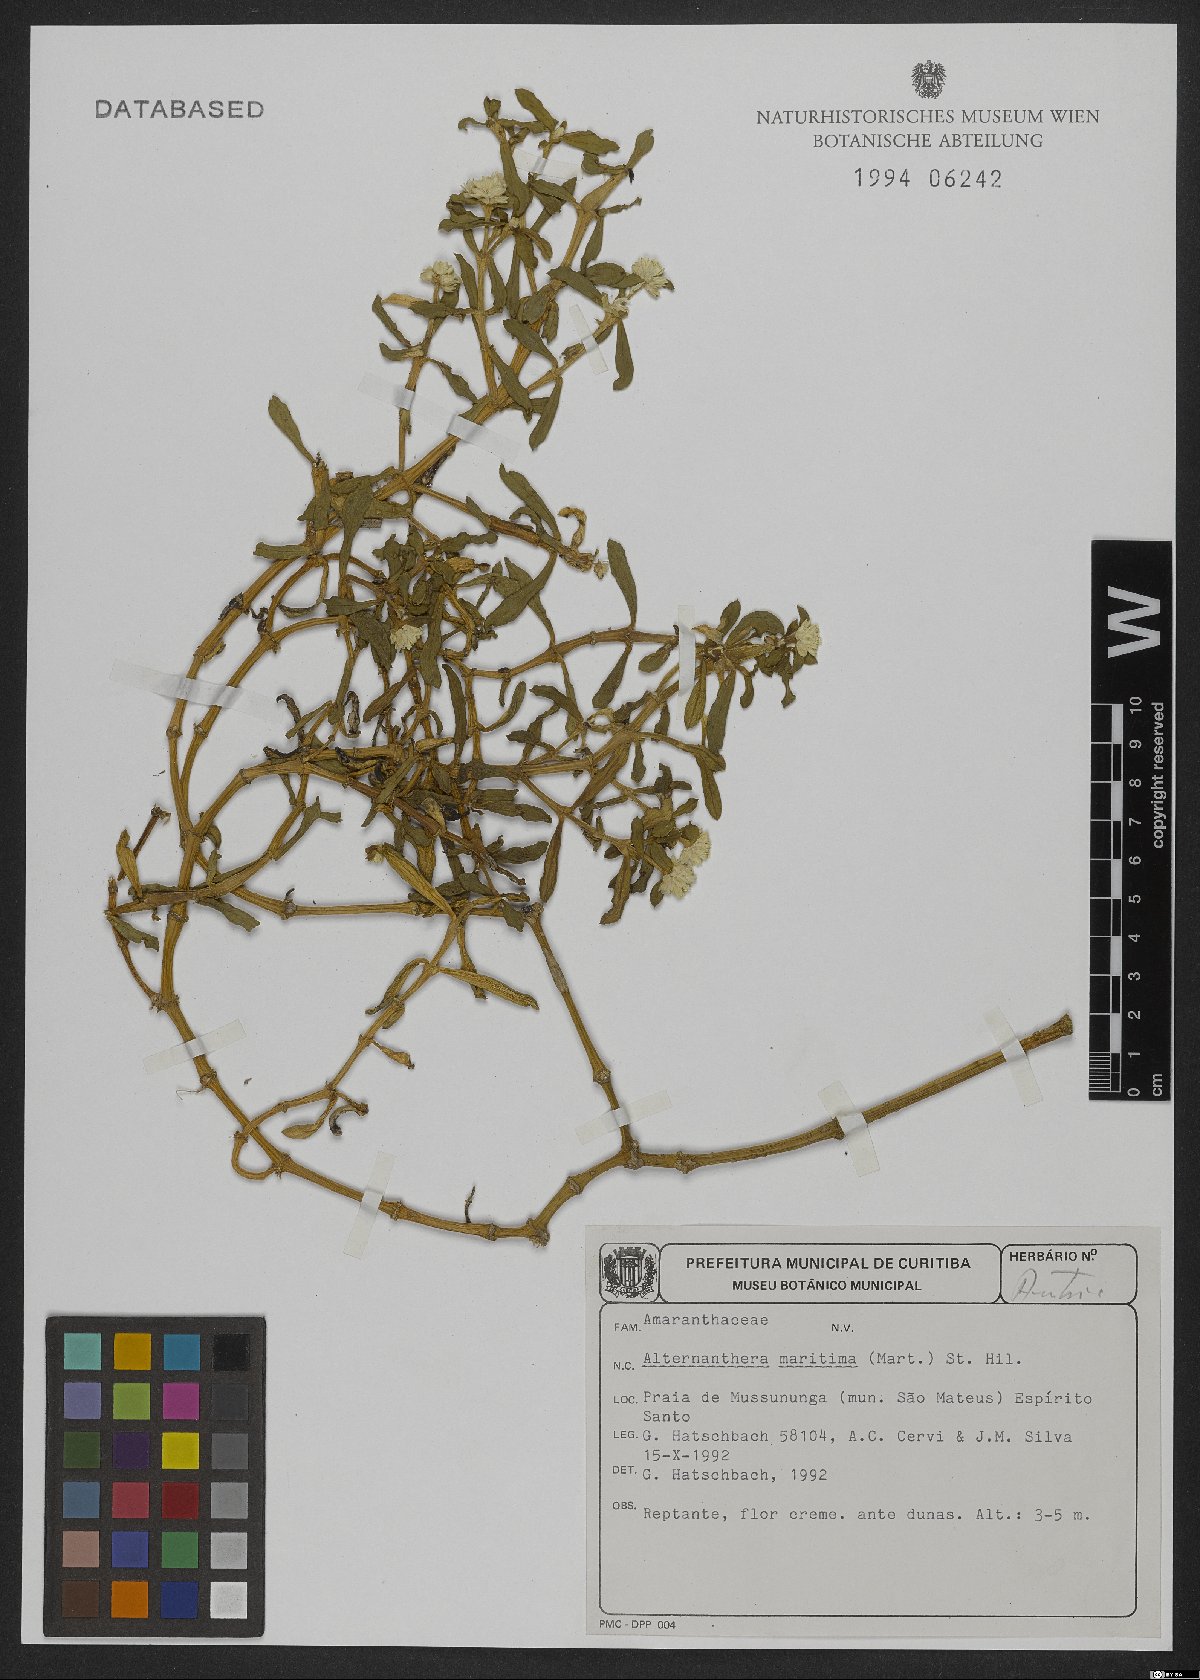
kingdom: Plantae
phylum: Tracheophyta
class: Magnoliopsida
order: Caryophyllales
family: Amaranthaceae
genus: Alternanthera
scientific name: Alternanthera littoralis
